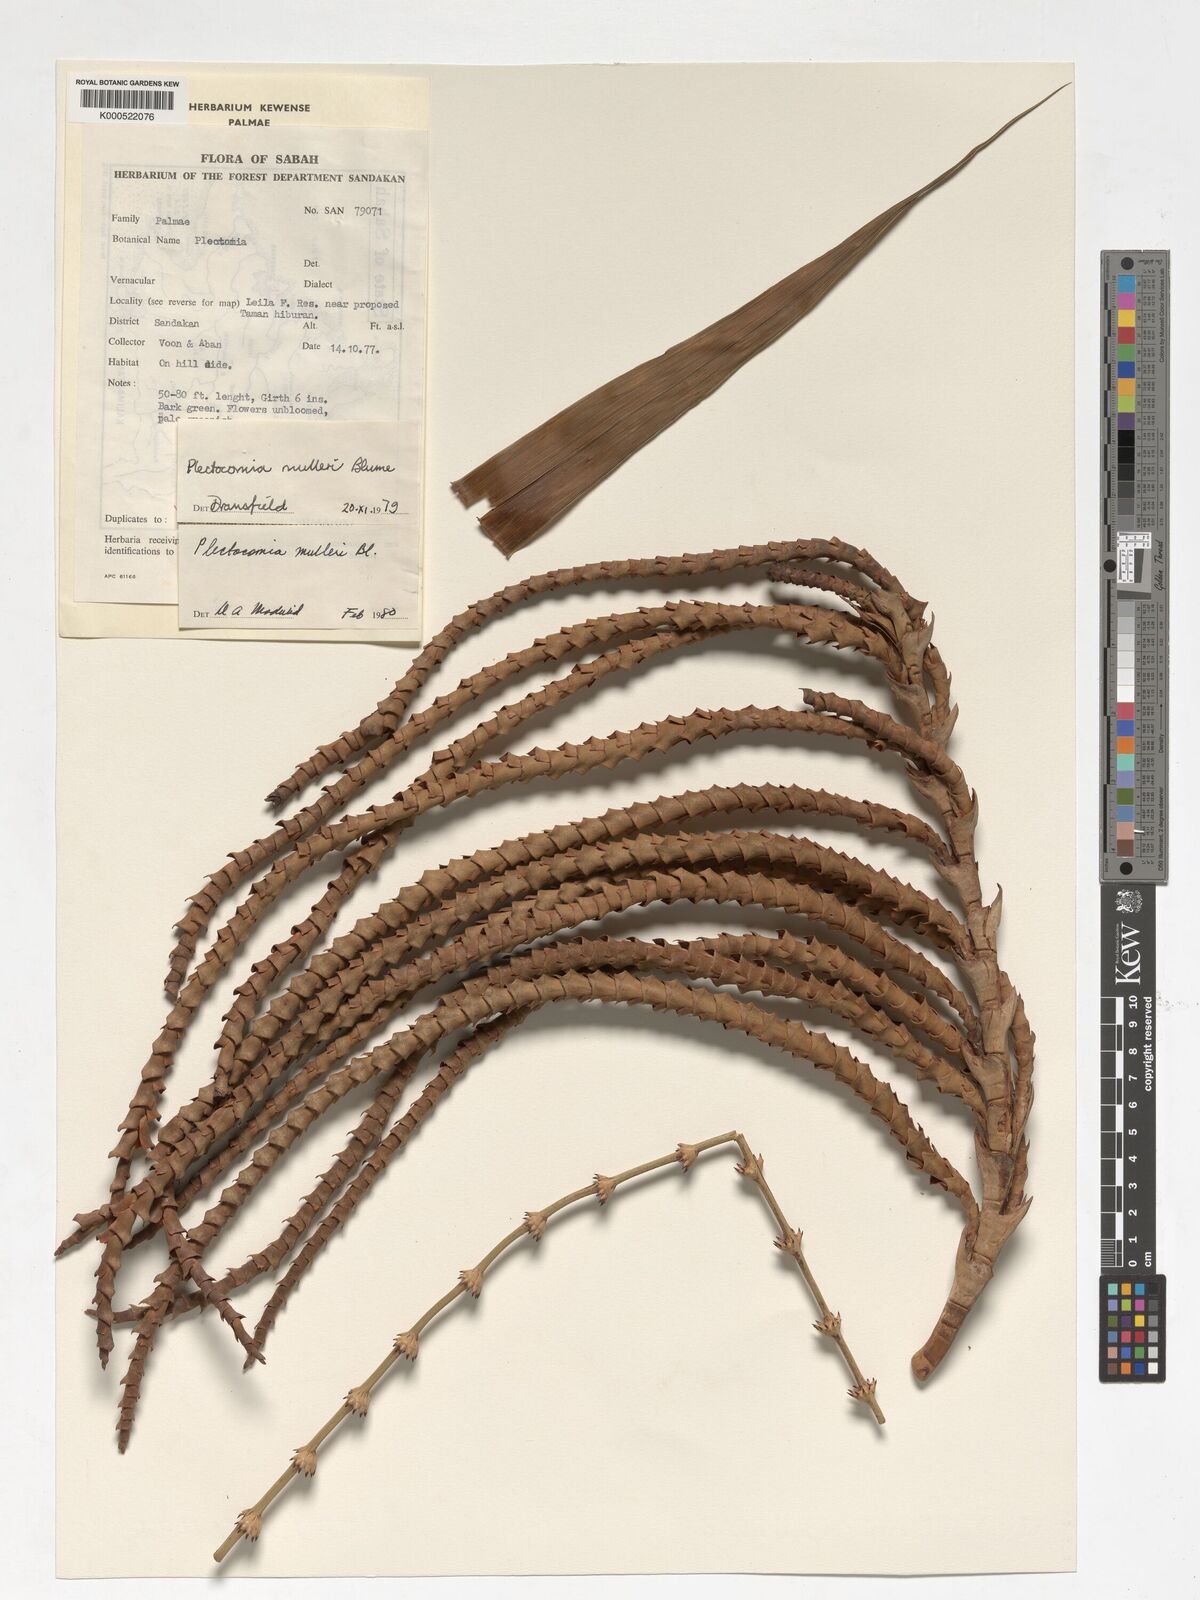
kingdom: Plantae
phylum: Tracheophyta
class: Liliopsida
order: Arecales
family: Arecaceae
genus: Plectocomia
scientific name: Plectocomia mulleri
